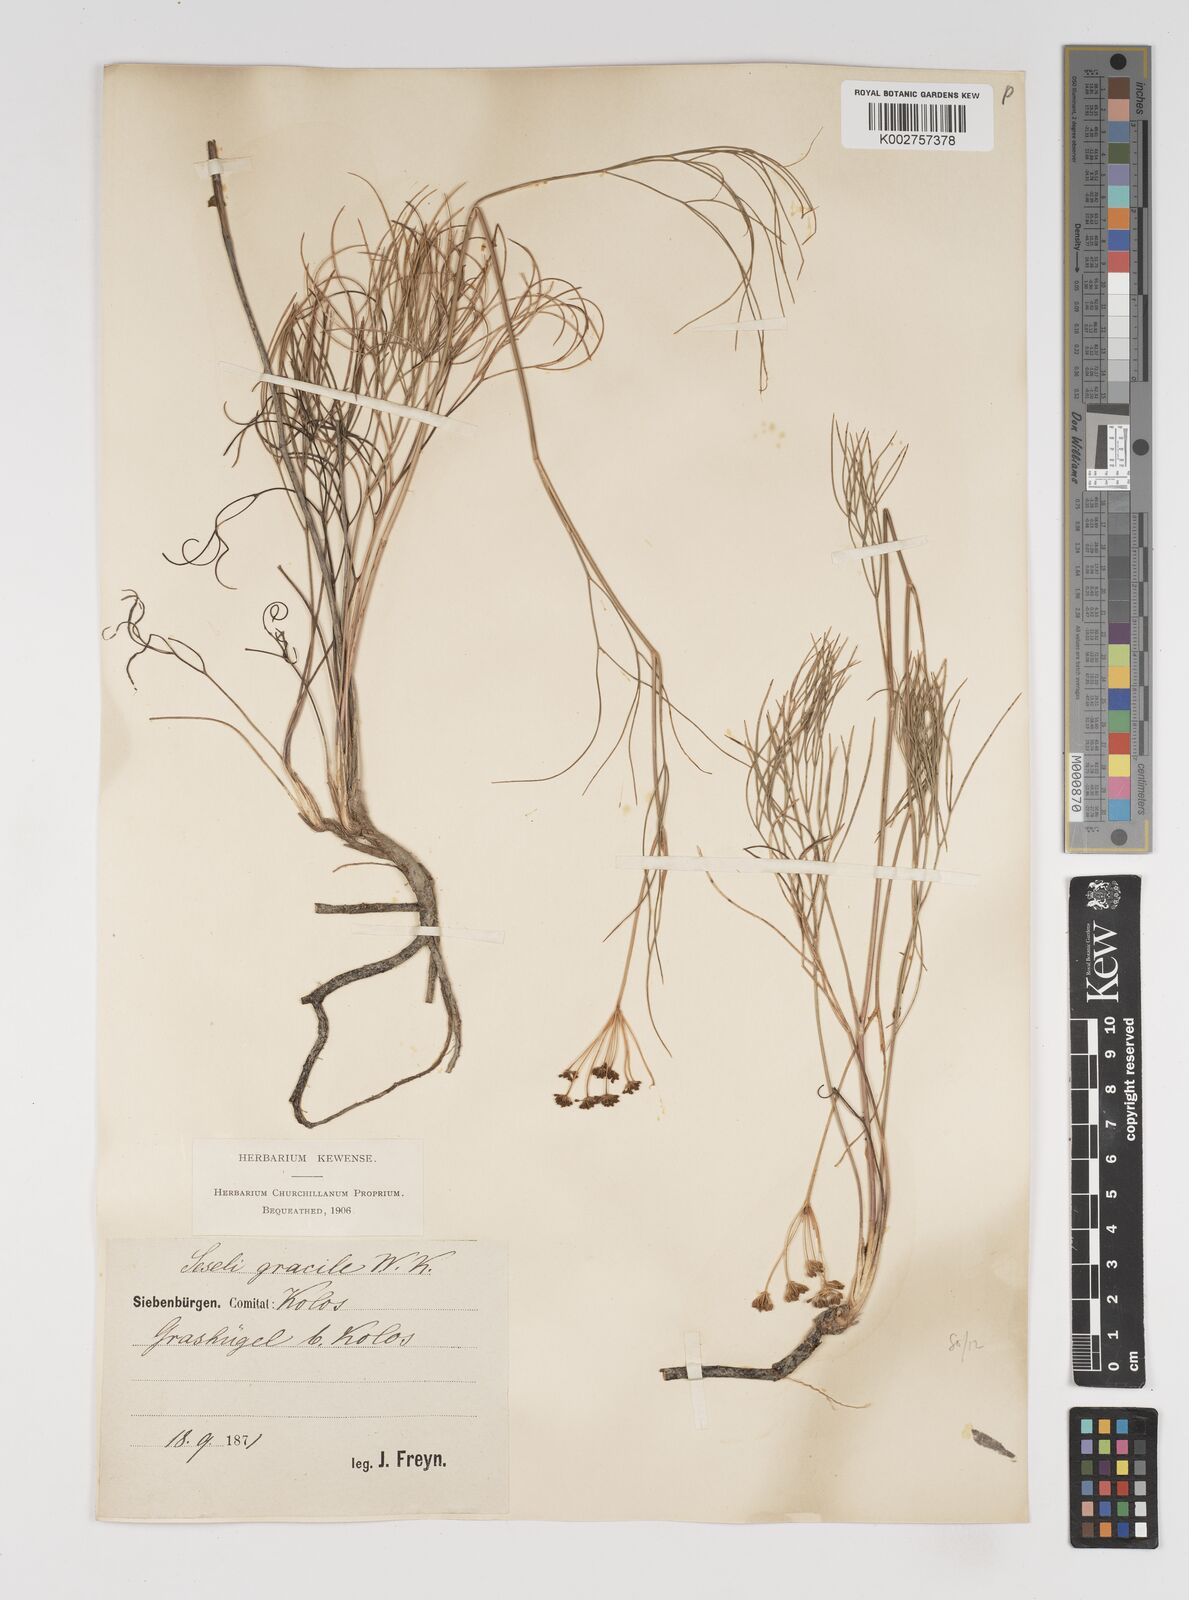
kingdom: Plantae
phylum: Tracheophyta
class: Magnoliopsida
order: Apiales
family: Apiaceae
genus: Seseli
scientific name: Seseli gracile
